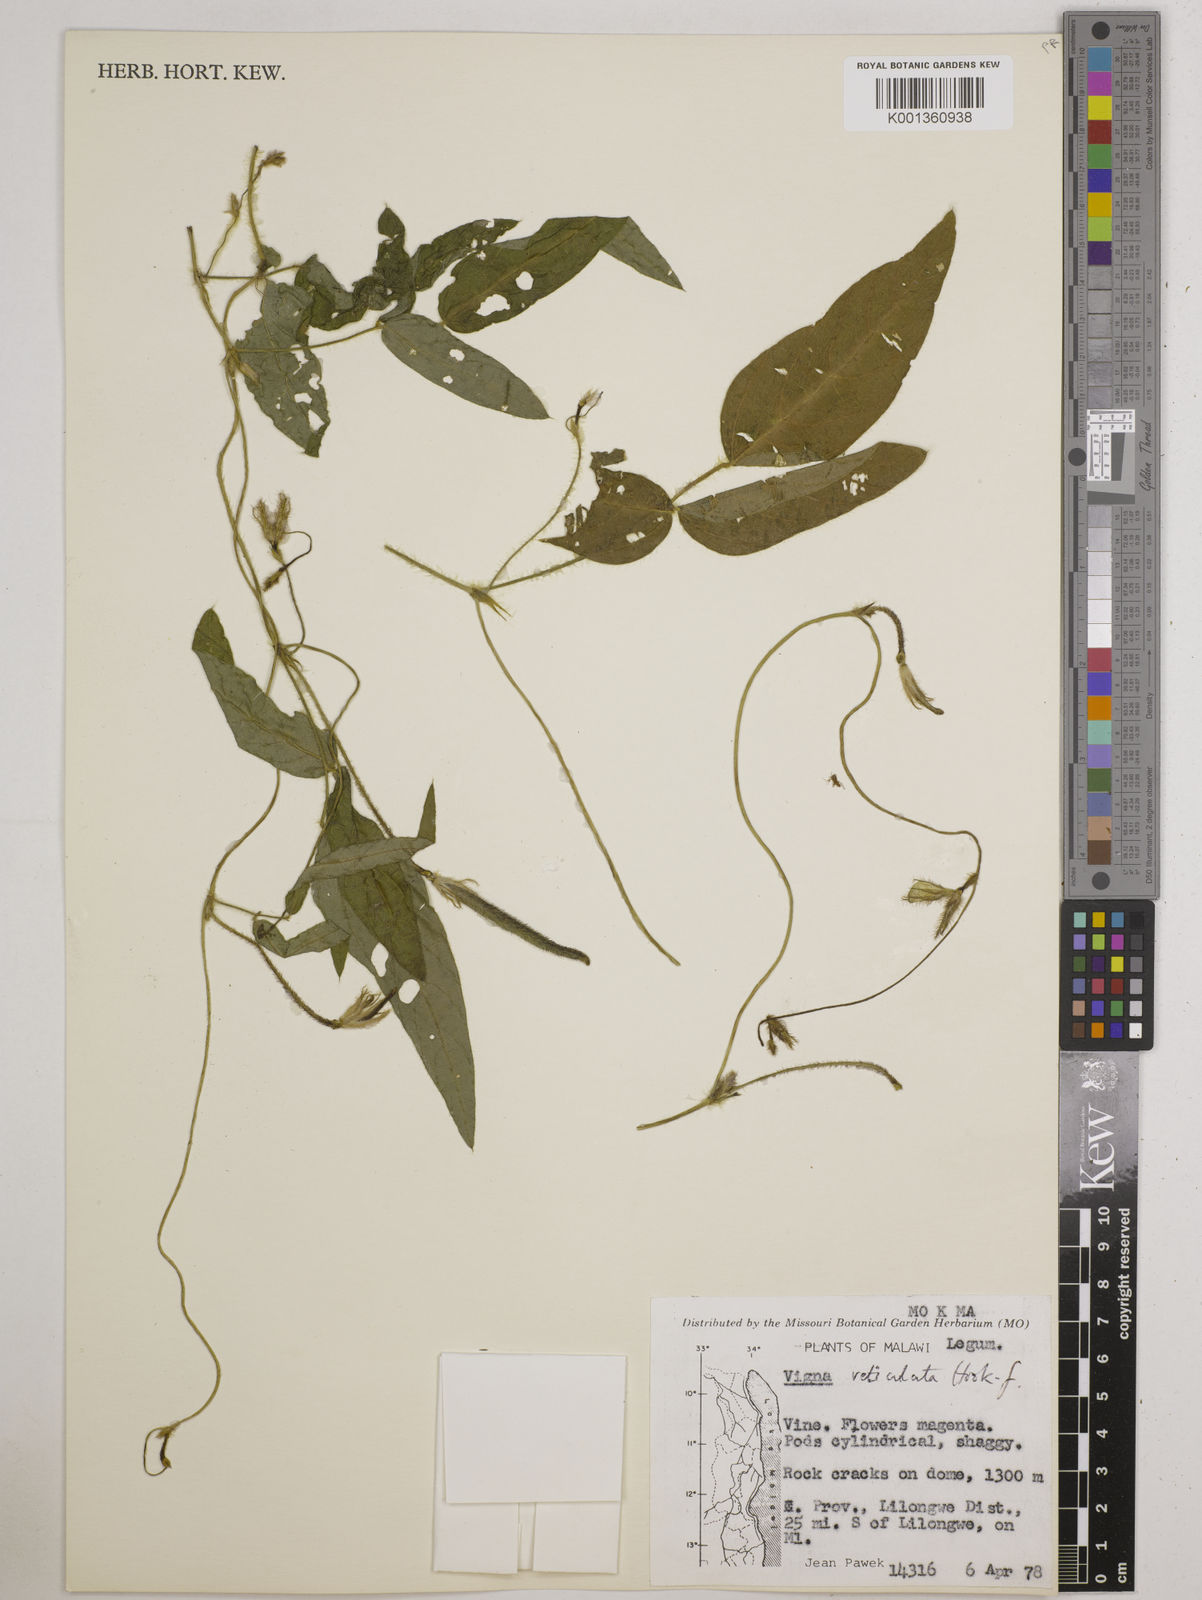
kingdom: Plantae
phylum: Tracheophyta
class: Magnoliopsida
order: Fabales
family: Fabaceae
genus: Vigna
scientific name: Vigna reticulata
